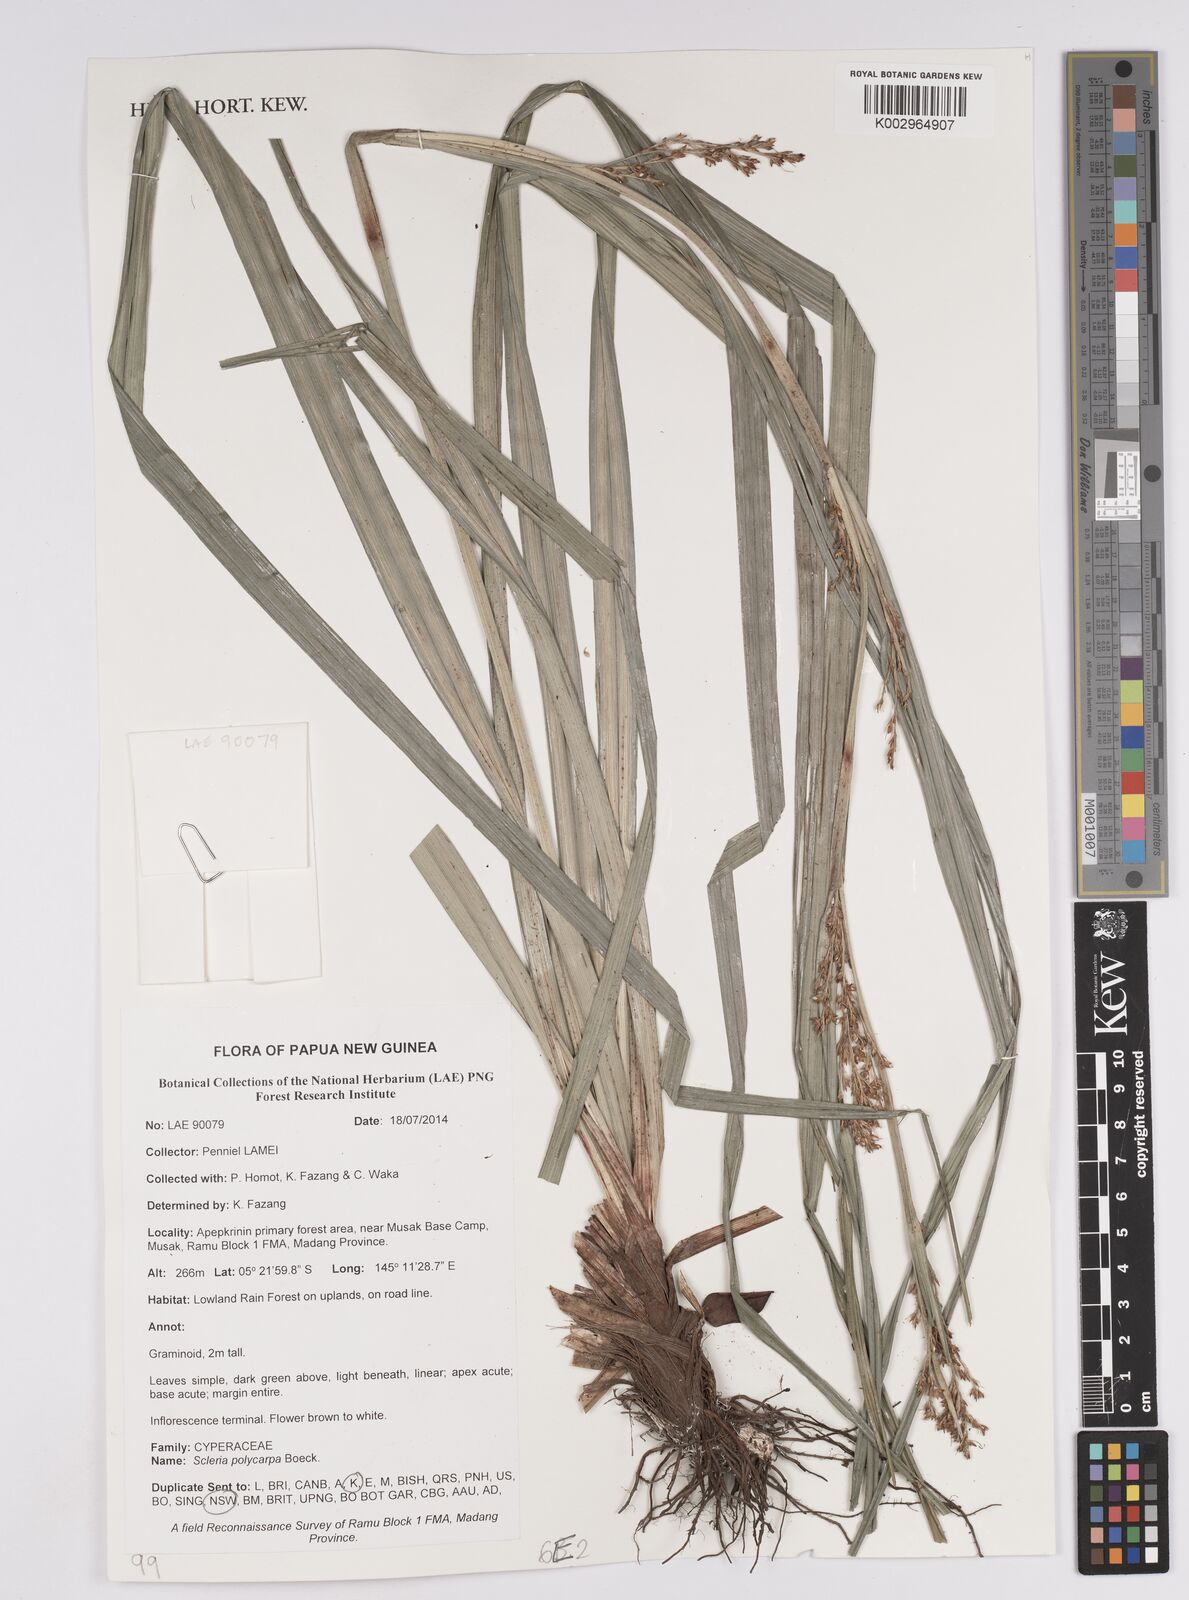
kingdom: Plantae
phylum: Tracheophyta
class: Liliopsida
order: Poales
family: Cyperaceae
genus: Scleria
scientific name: Scleria polycarpa
